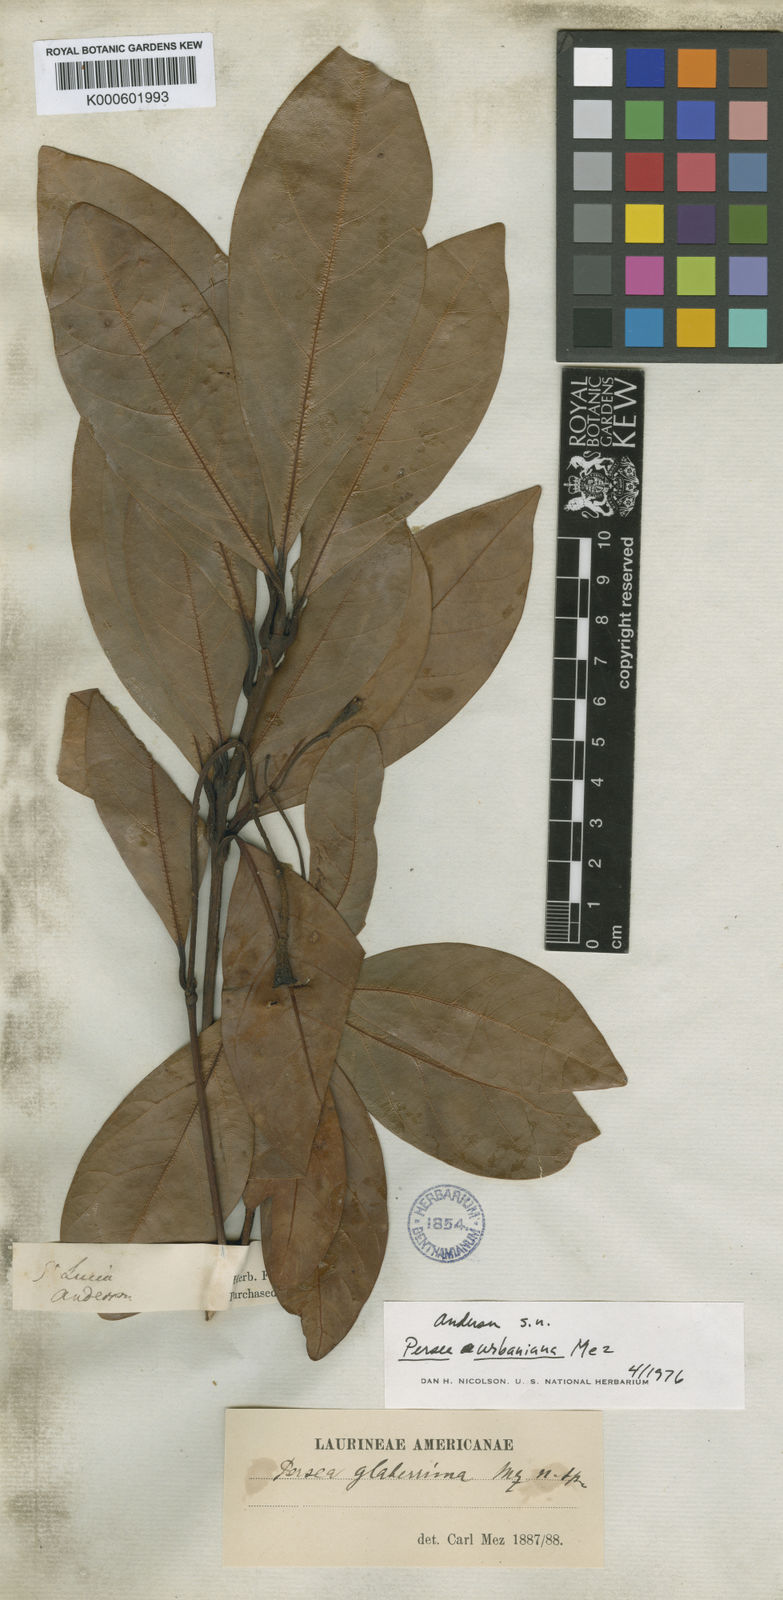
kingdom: Plantae
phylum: Tracheophyta
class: Magnoliopsida
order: Laurales
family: Lauraceae
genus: Persea
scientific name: Persea urbaniana
